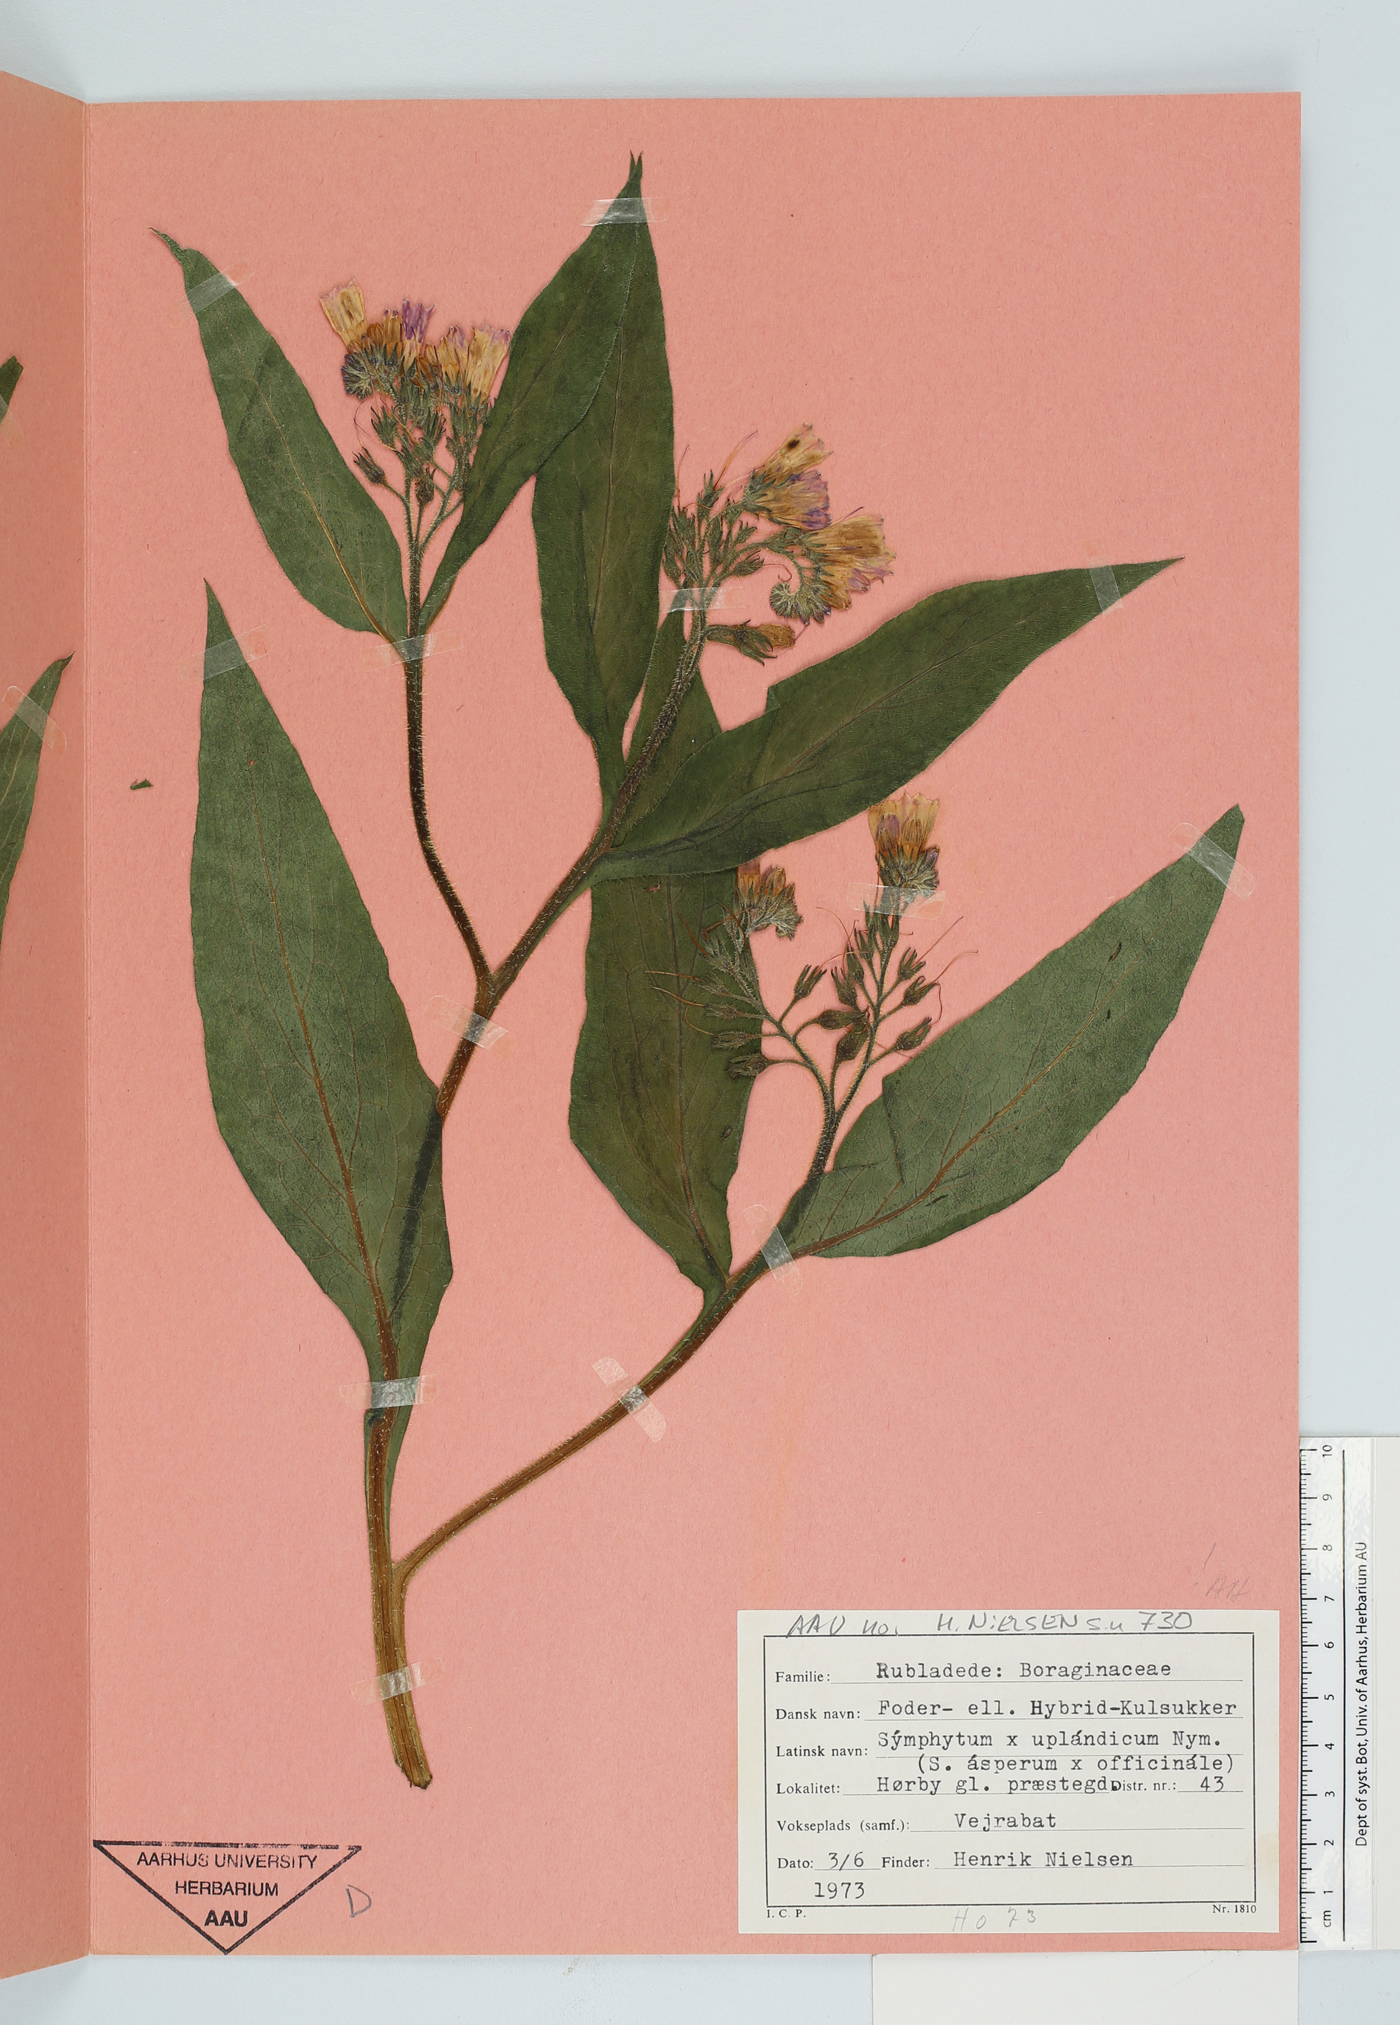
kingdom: Plantae
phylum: Tracheophyta
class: Magnoliopsida
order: Boraginales
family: Boraginaceae
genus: Symphytum
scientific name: Symphytum uplandicum
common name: Russian comfrey
